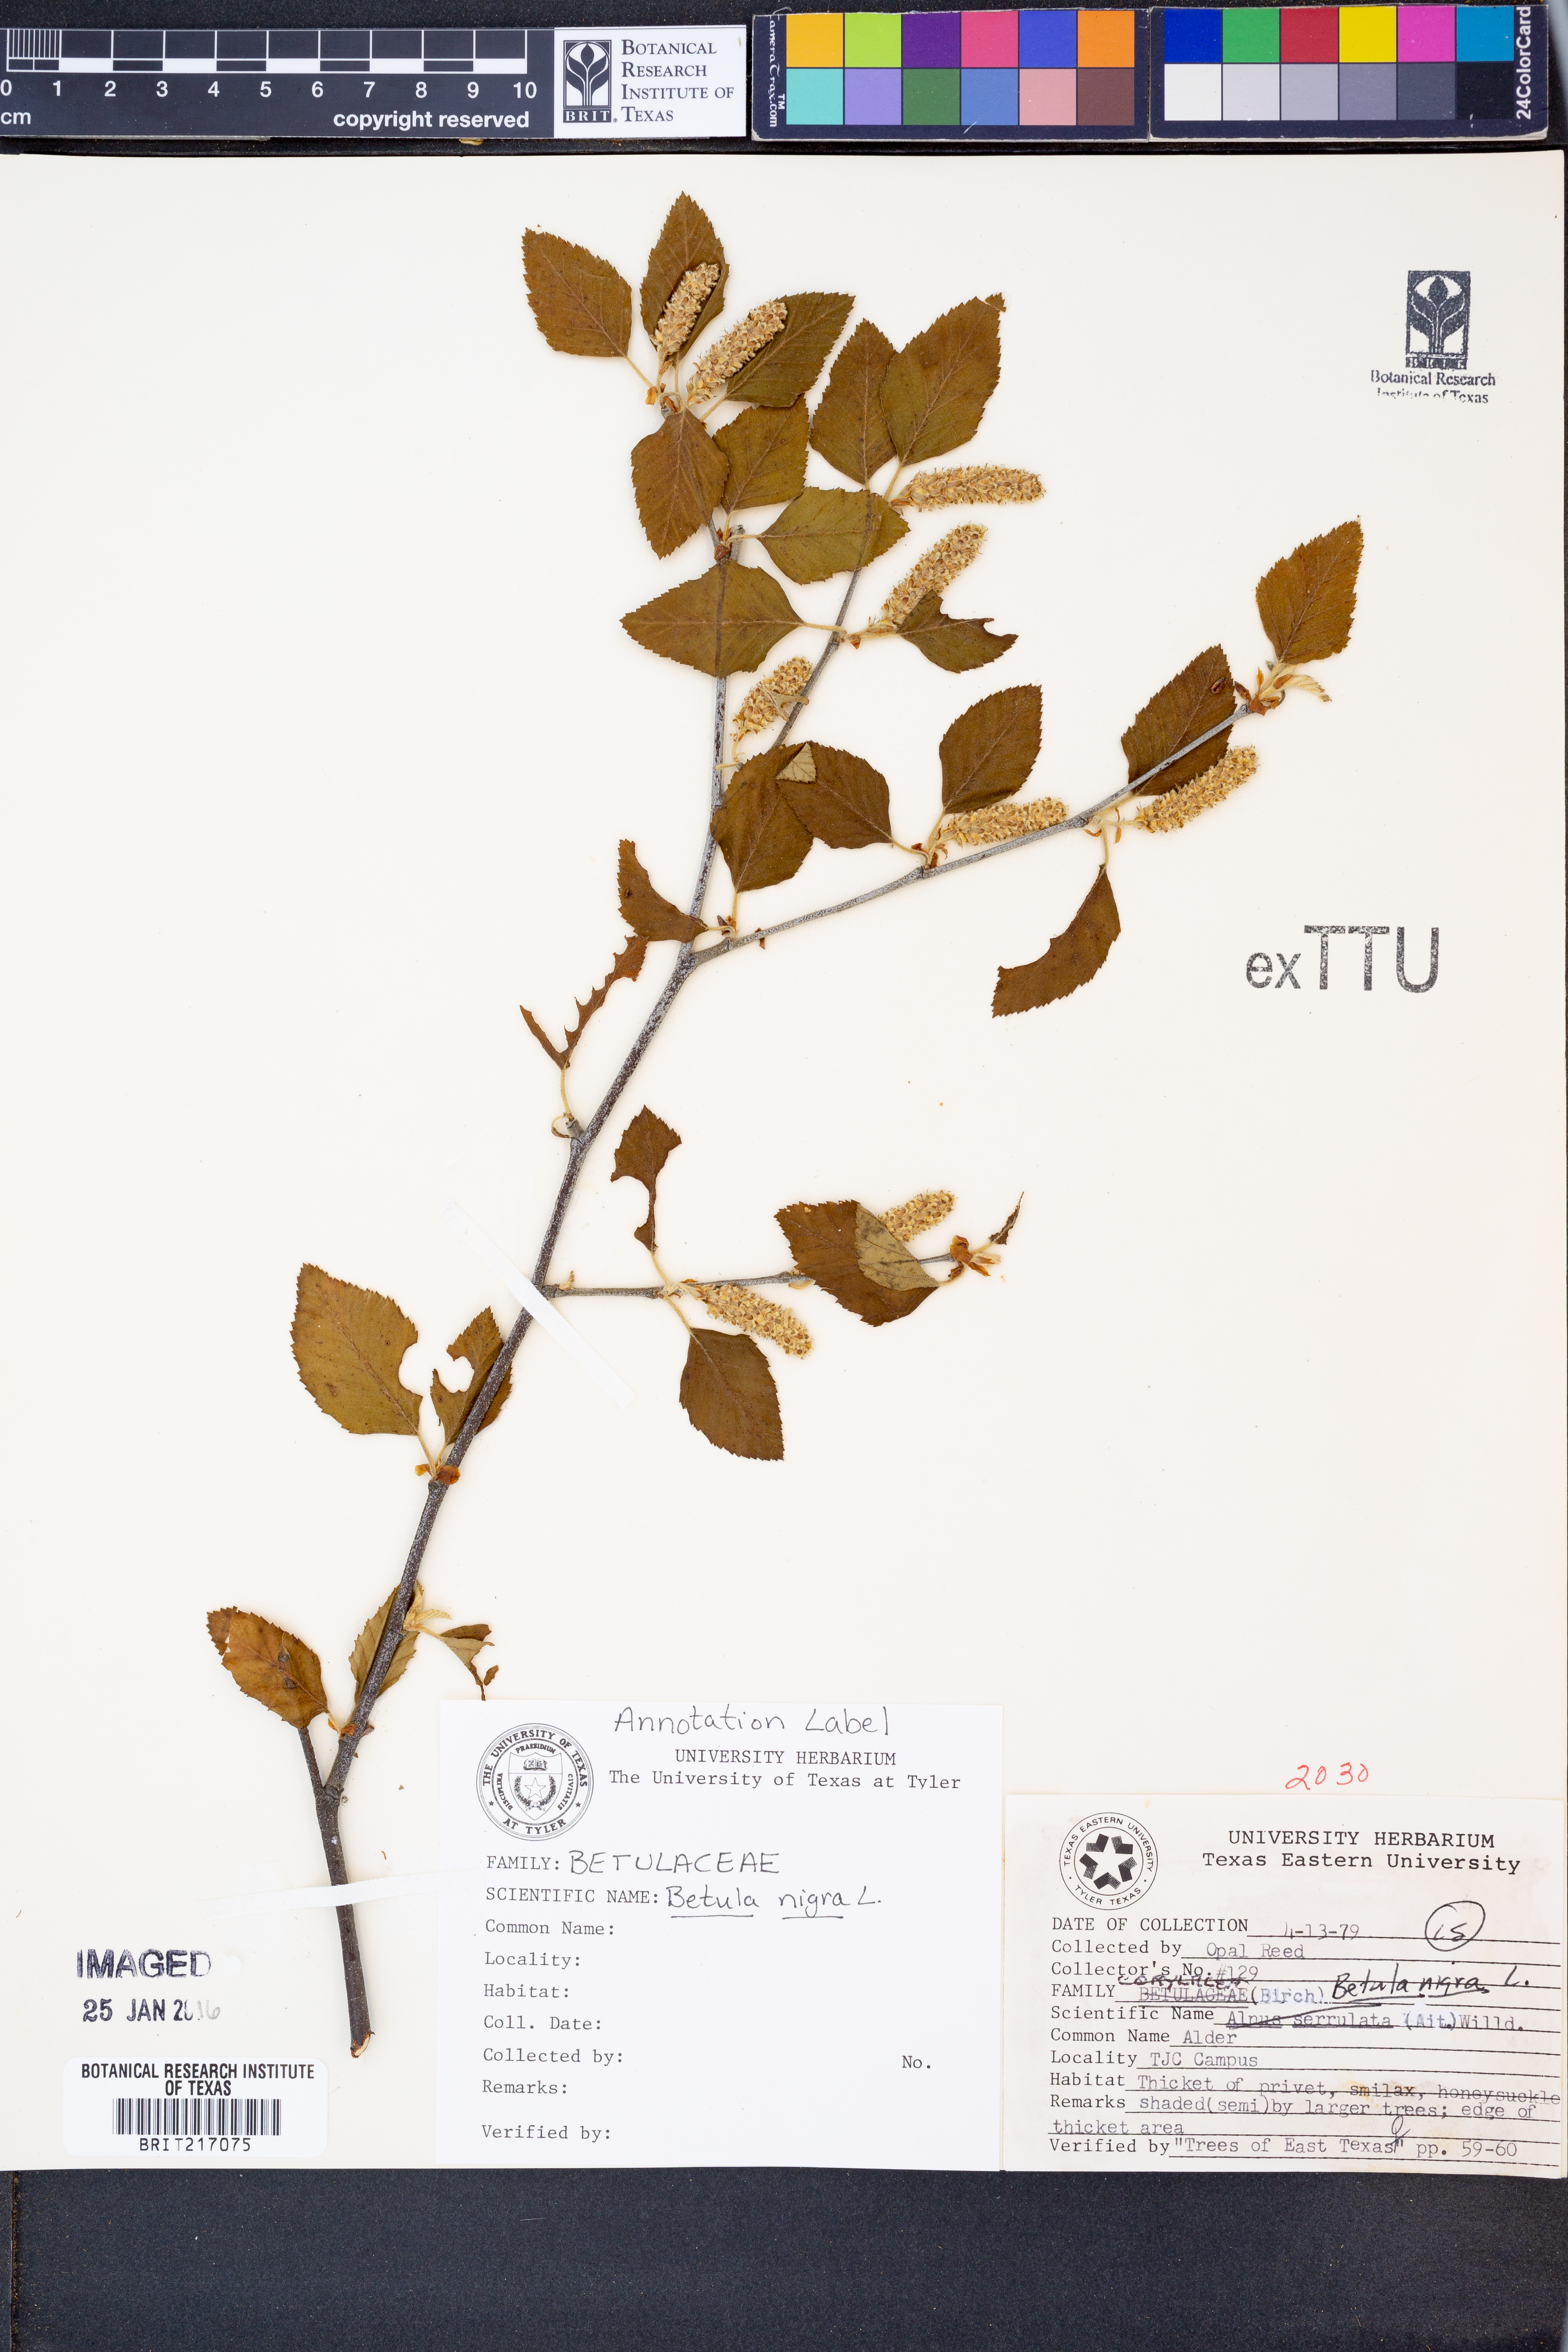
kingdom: Plantae
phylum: Tracheophyta
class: Magnoliopsida
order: Fagales
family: Betulaceae
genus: Betula
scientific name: Betula nigra
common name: Black birch
